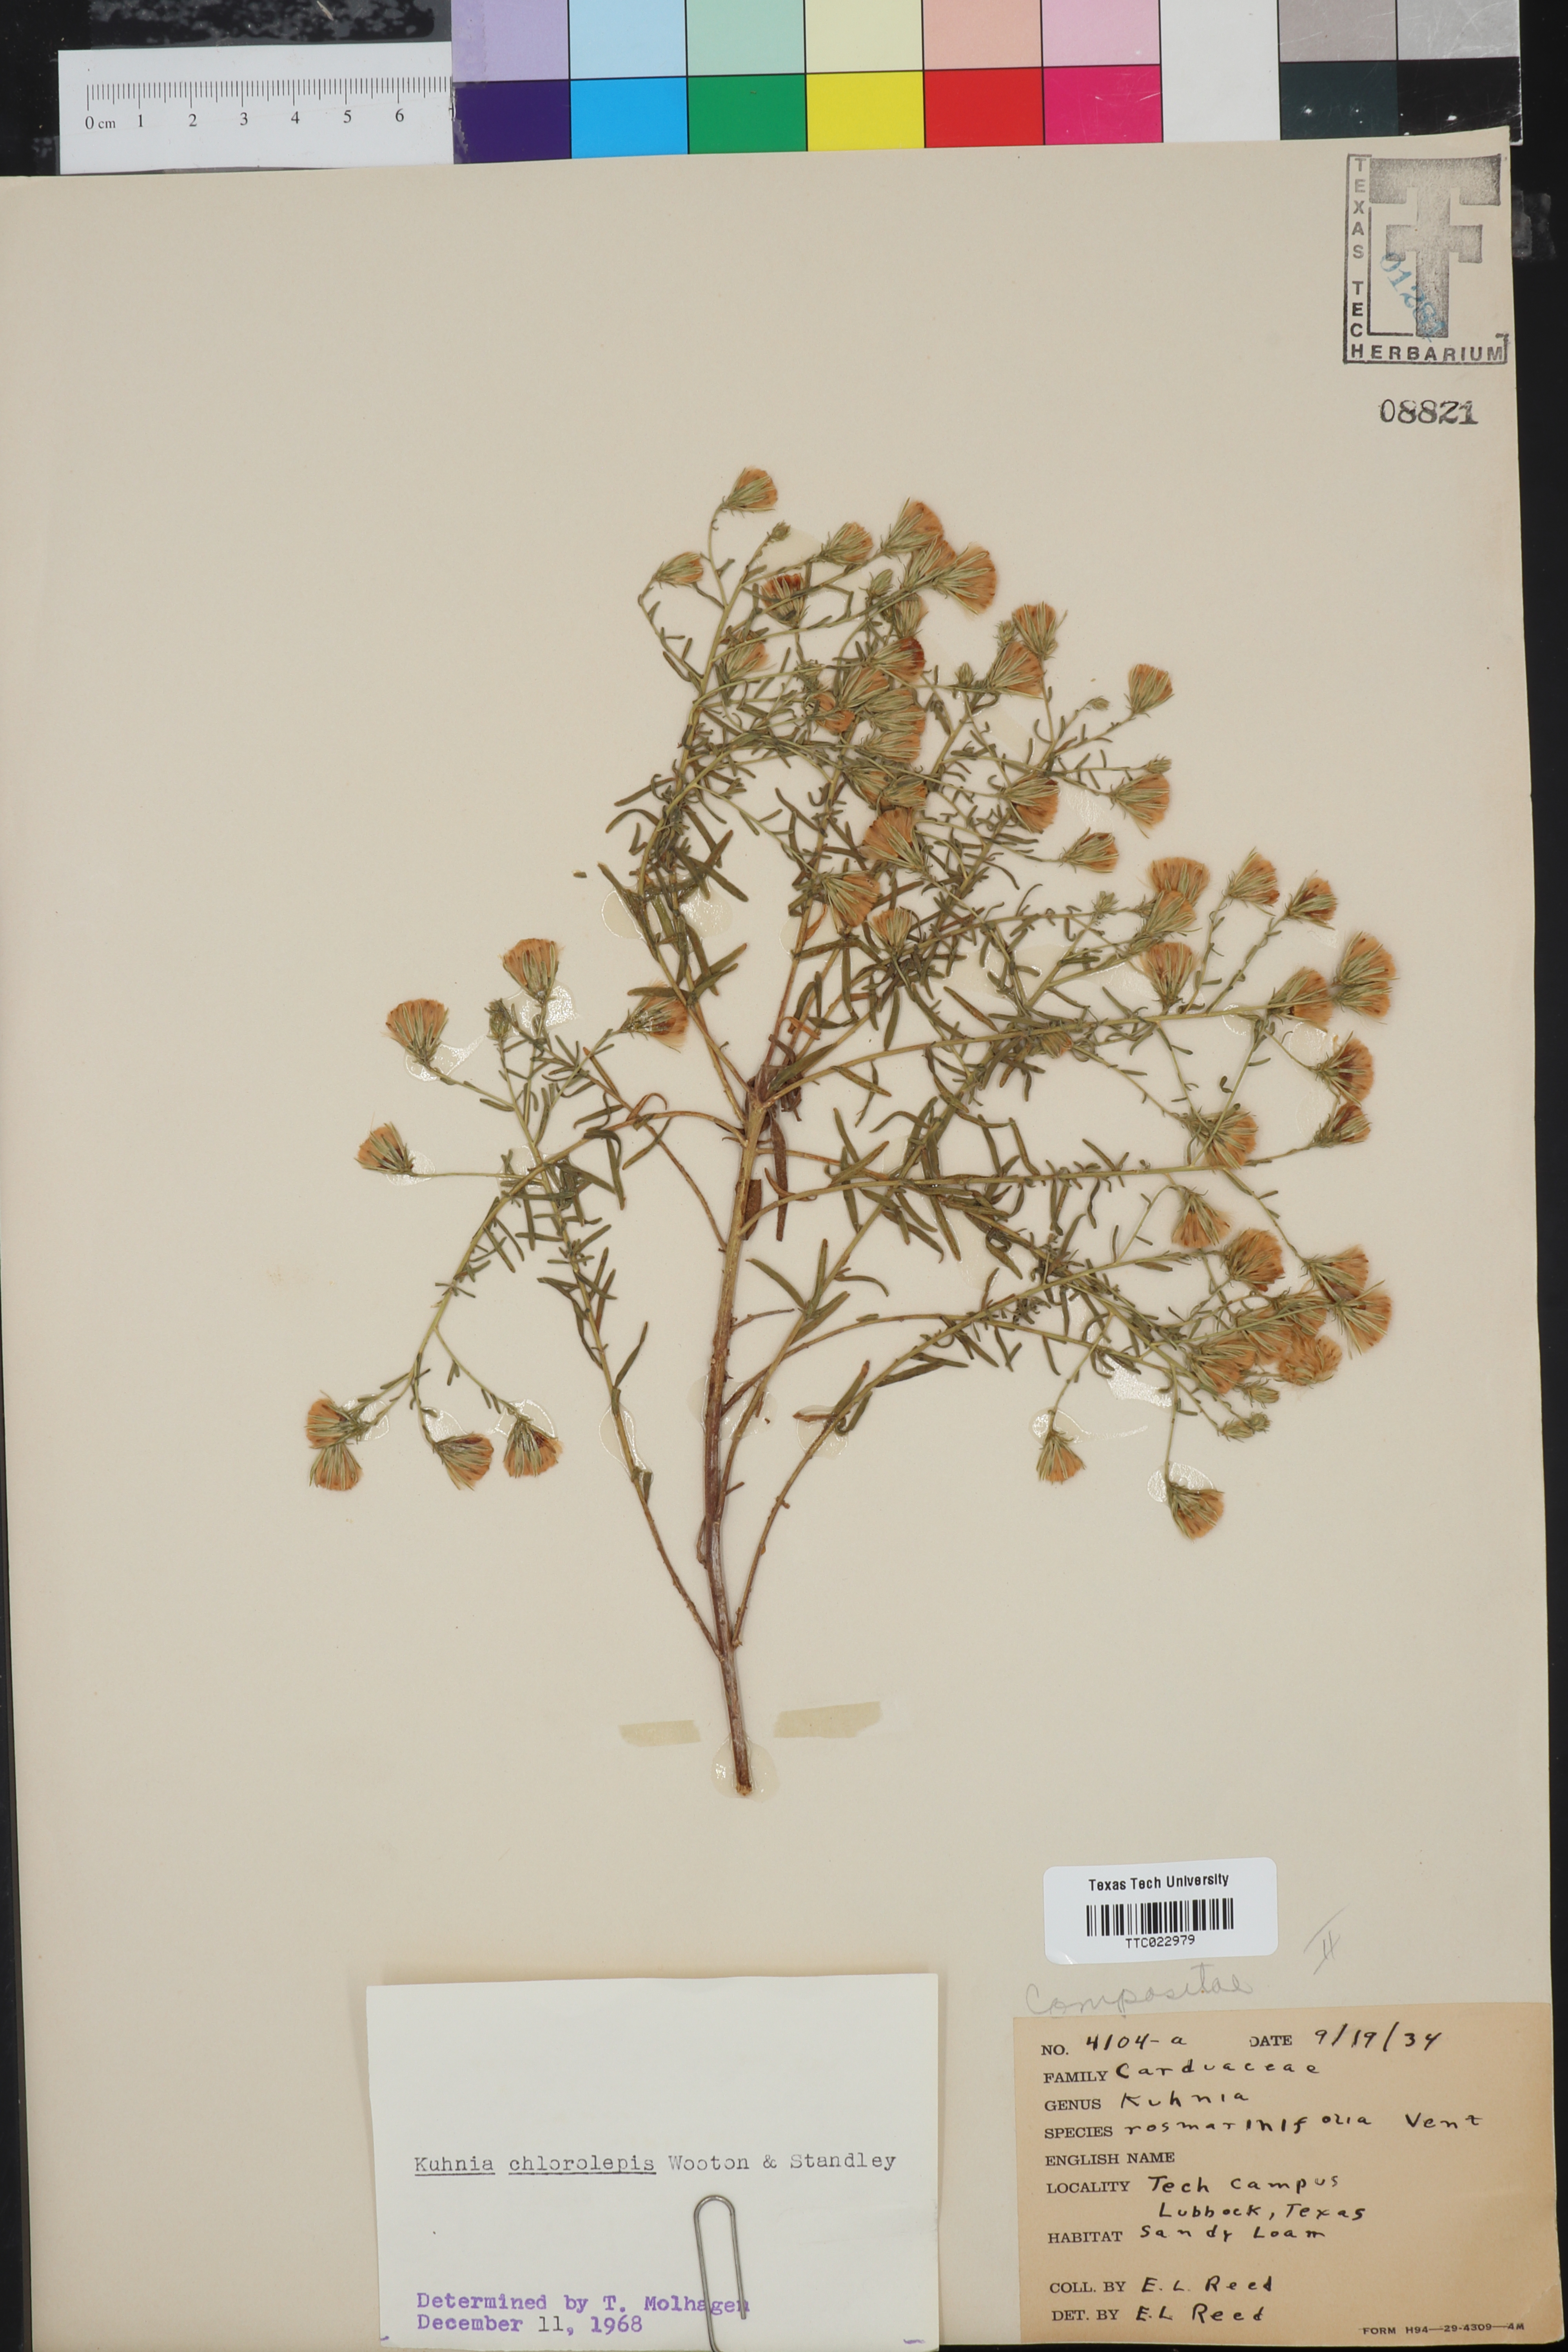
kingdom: Plantae
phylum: Tracheophyta
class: Magnoliopsida
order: Asterales
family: Asteraceae
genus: Brickellia
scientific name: Brickellia leptophylla
